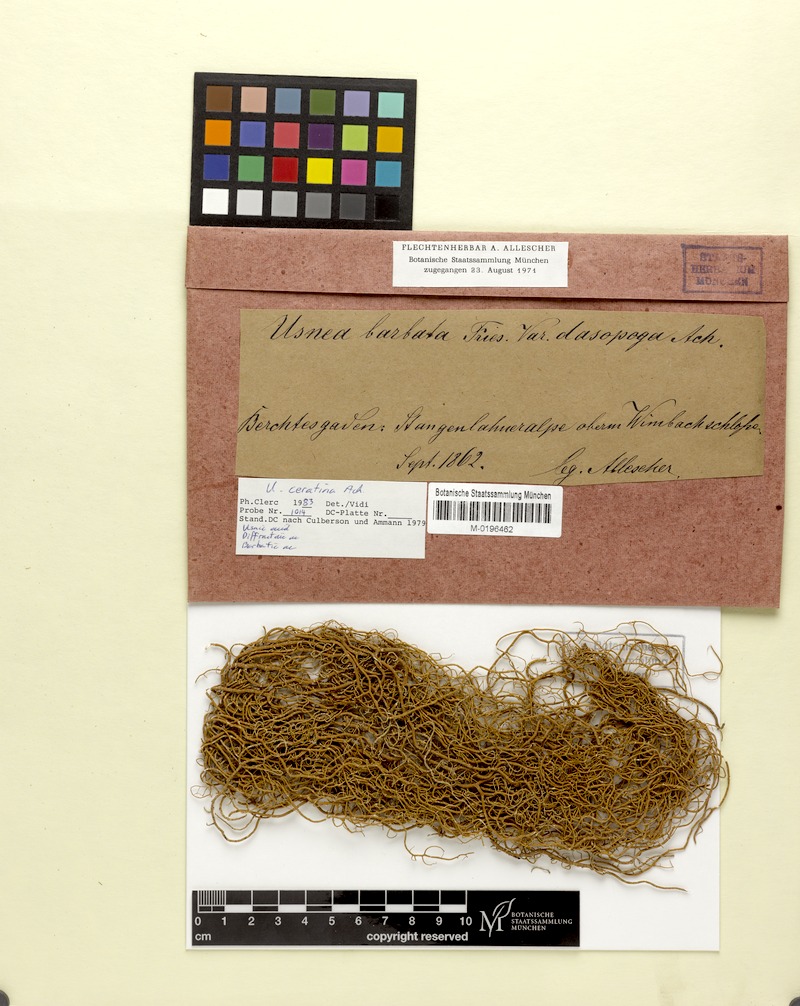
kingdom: Fungi
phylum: Ascomycota
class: Lecanoromycetes
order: Lecanorales
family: Parmeliaceae
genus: Usnea
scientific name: Usnea ceratina
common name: Warty beard lichen
